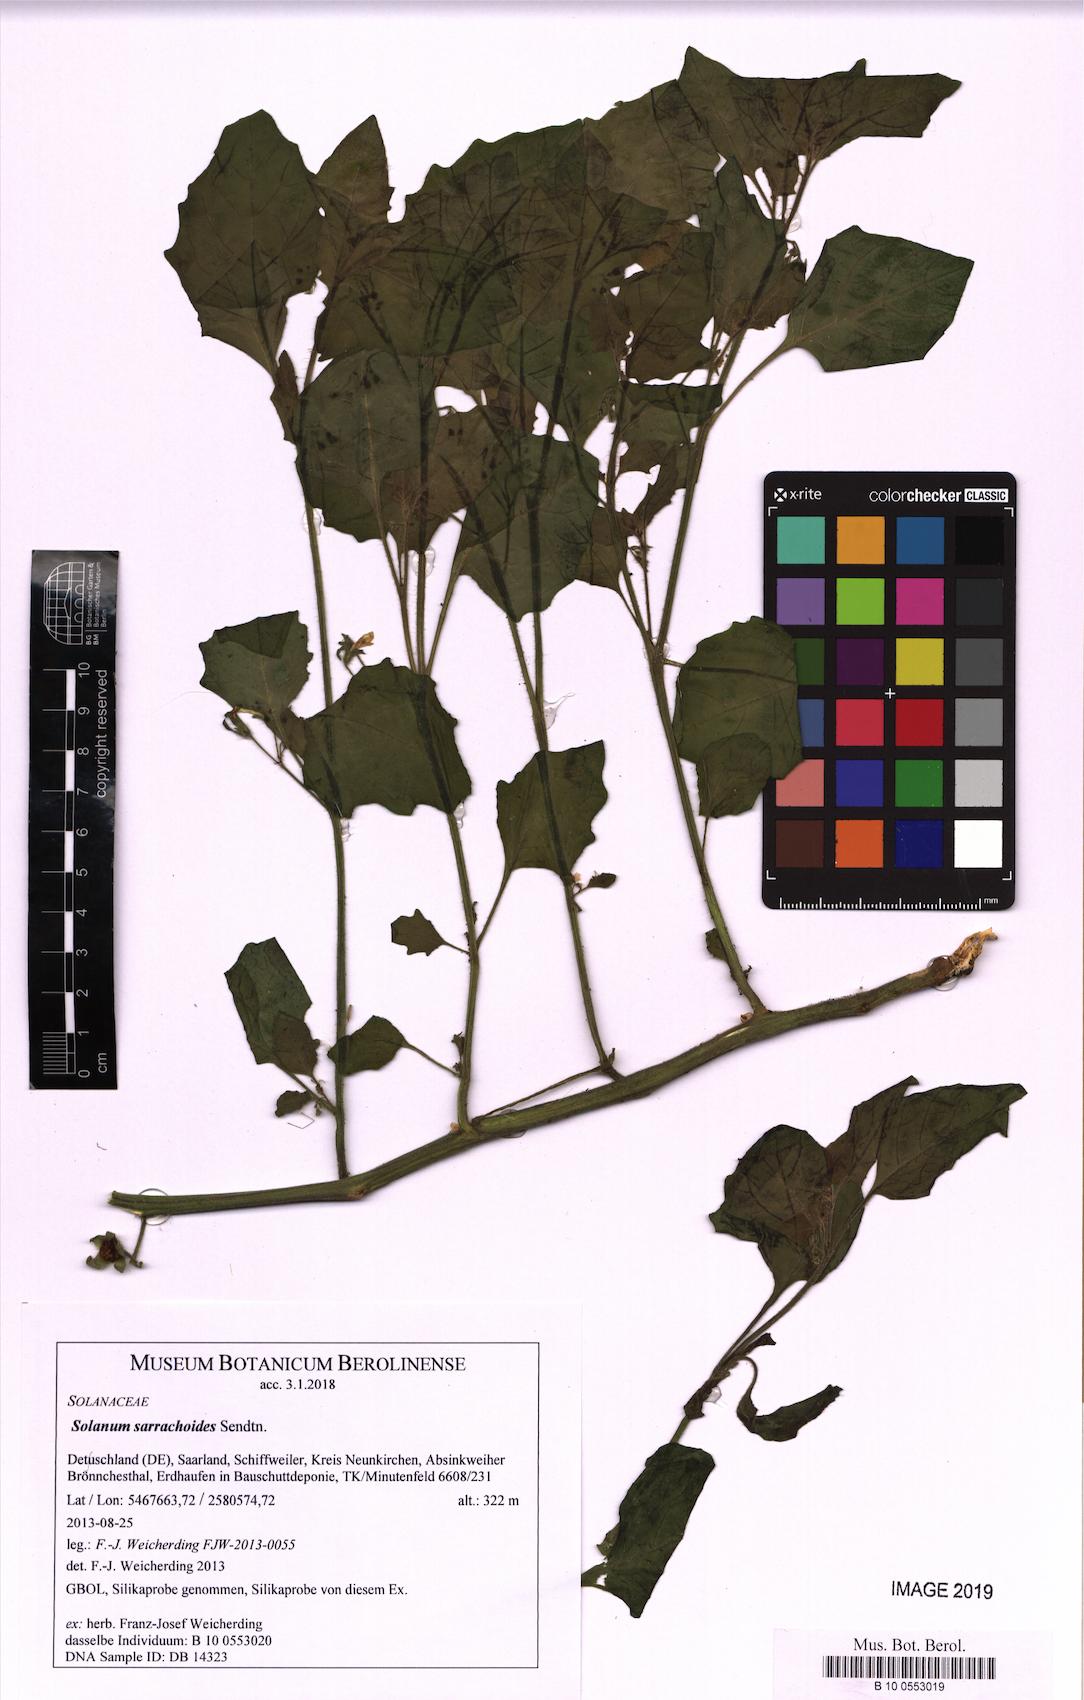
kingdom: Plantae
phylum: Tracheophyta
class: Magnoliopsida
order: Solanales
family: Solanaceae
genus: Solanum
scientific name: Solanum sarrachoides
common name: Leafy-fruited nightshade
